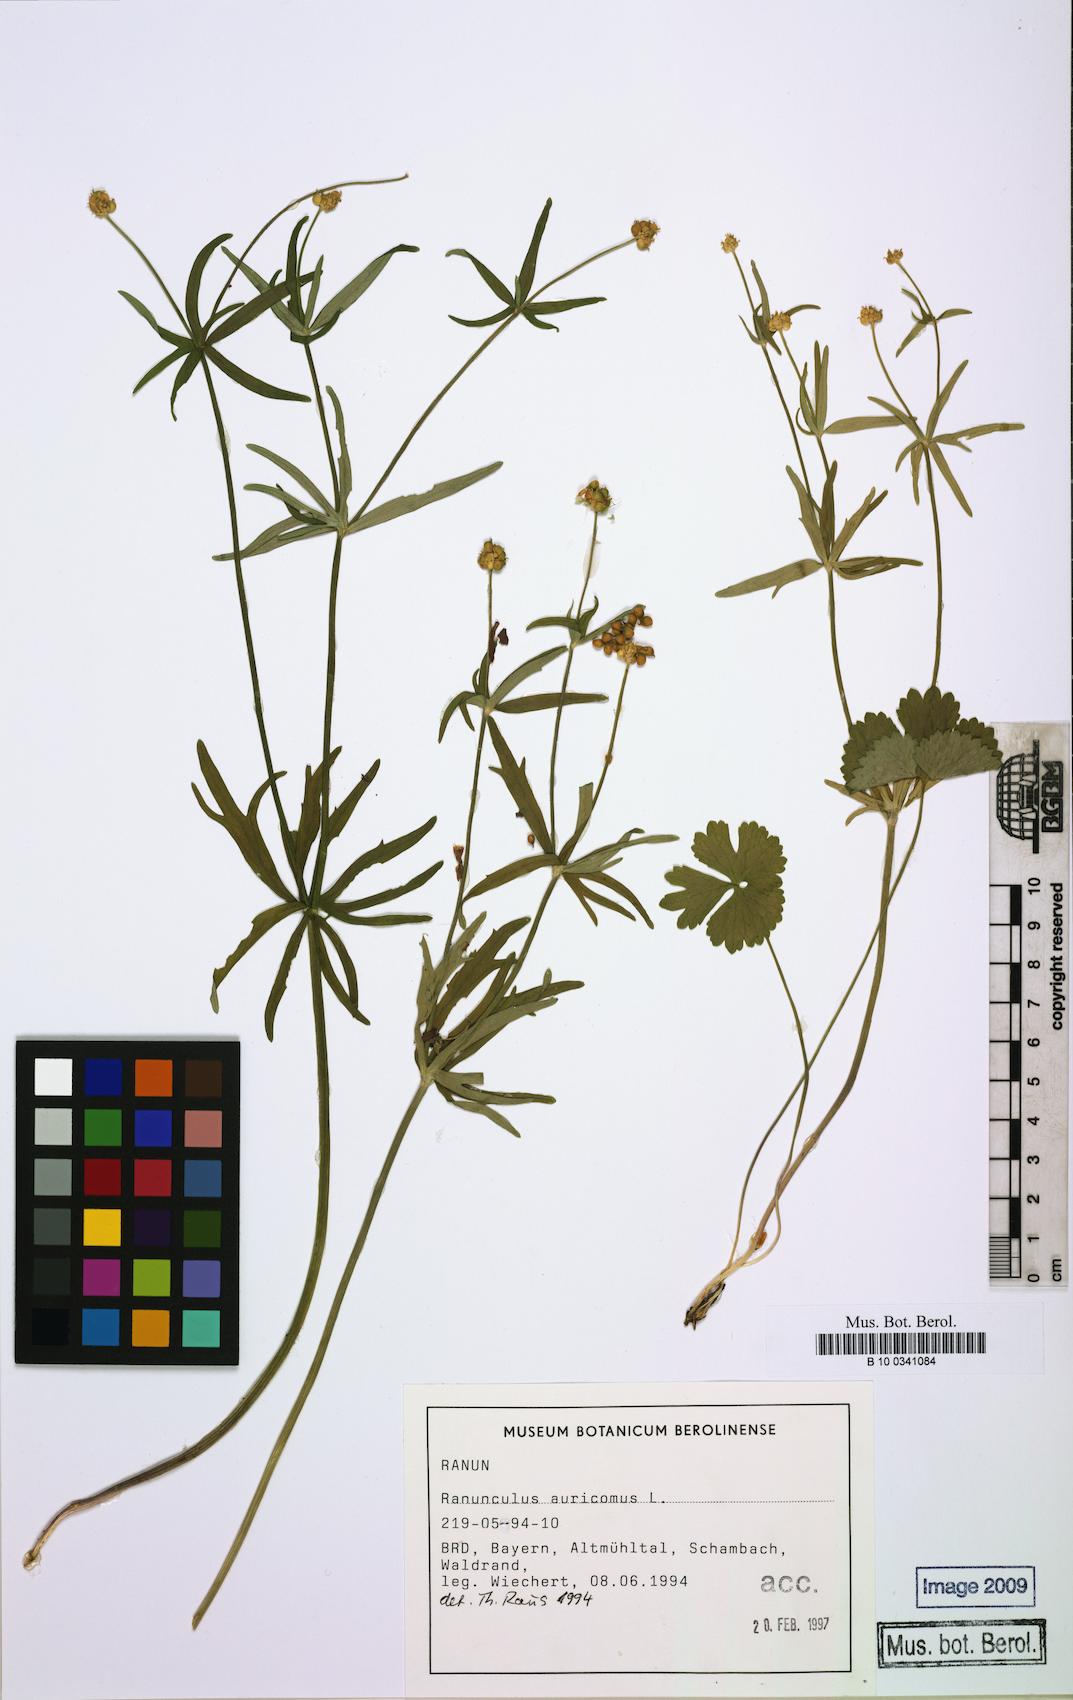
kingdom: Plantae
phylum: Tracheophyta
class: Magnoliopsida
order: Ranunculales
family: Ranunculaceae
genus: Ranunculus
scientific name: Ranunculus auricomus
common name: Goldilocks buttercup
